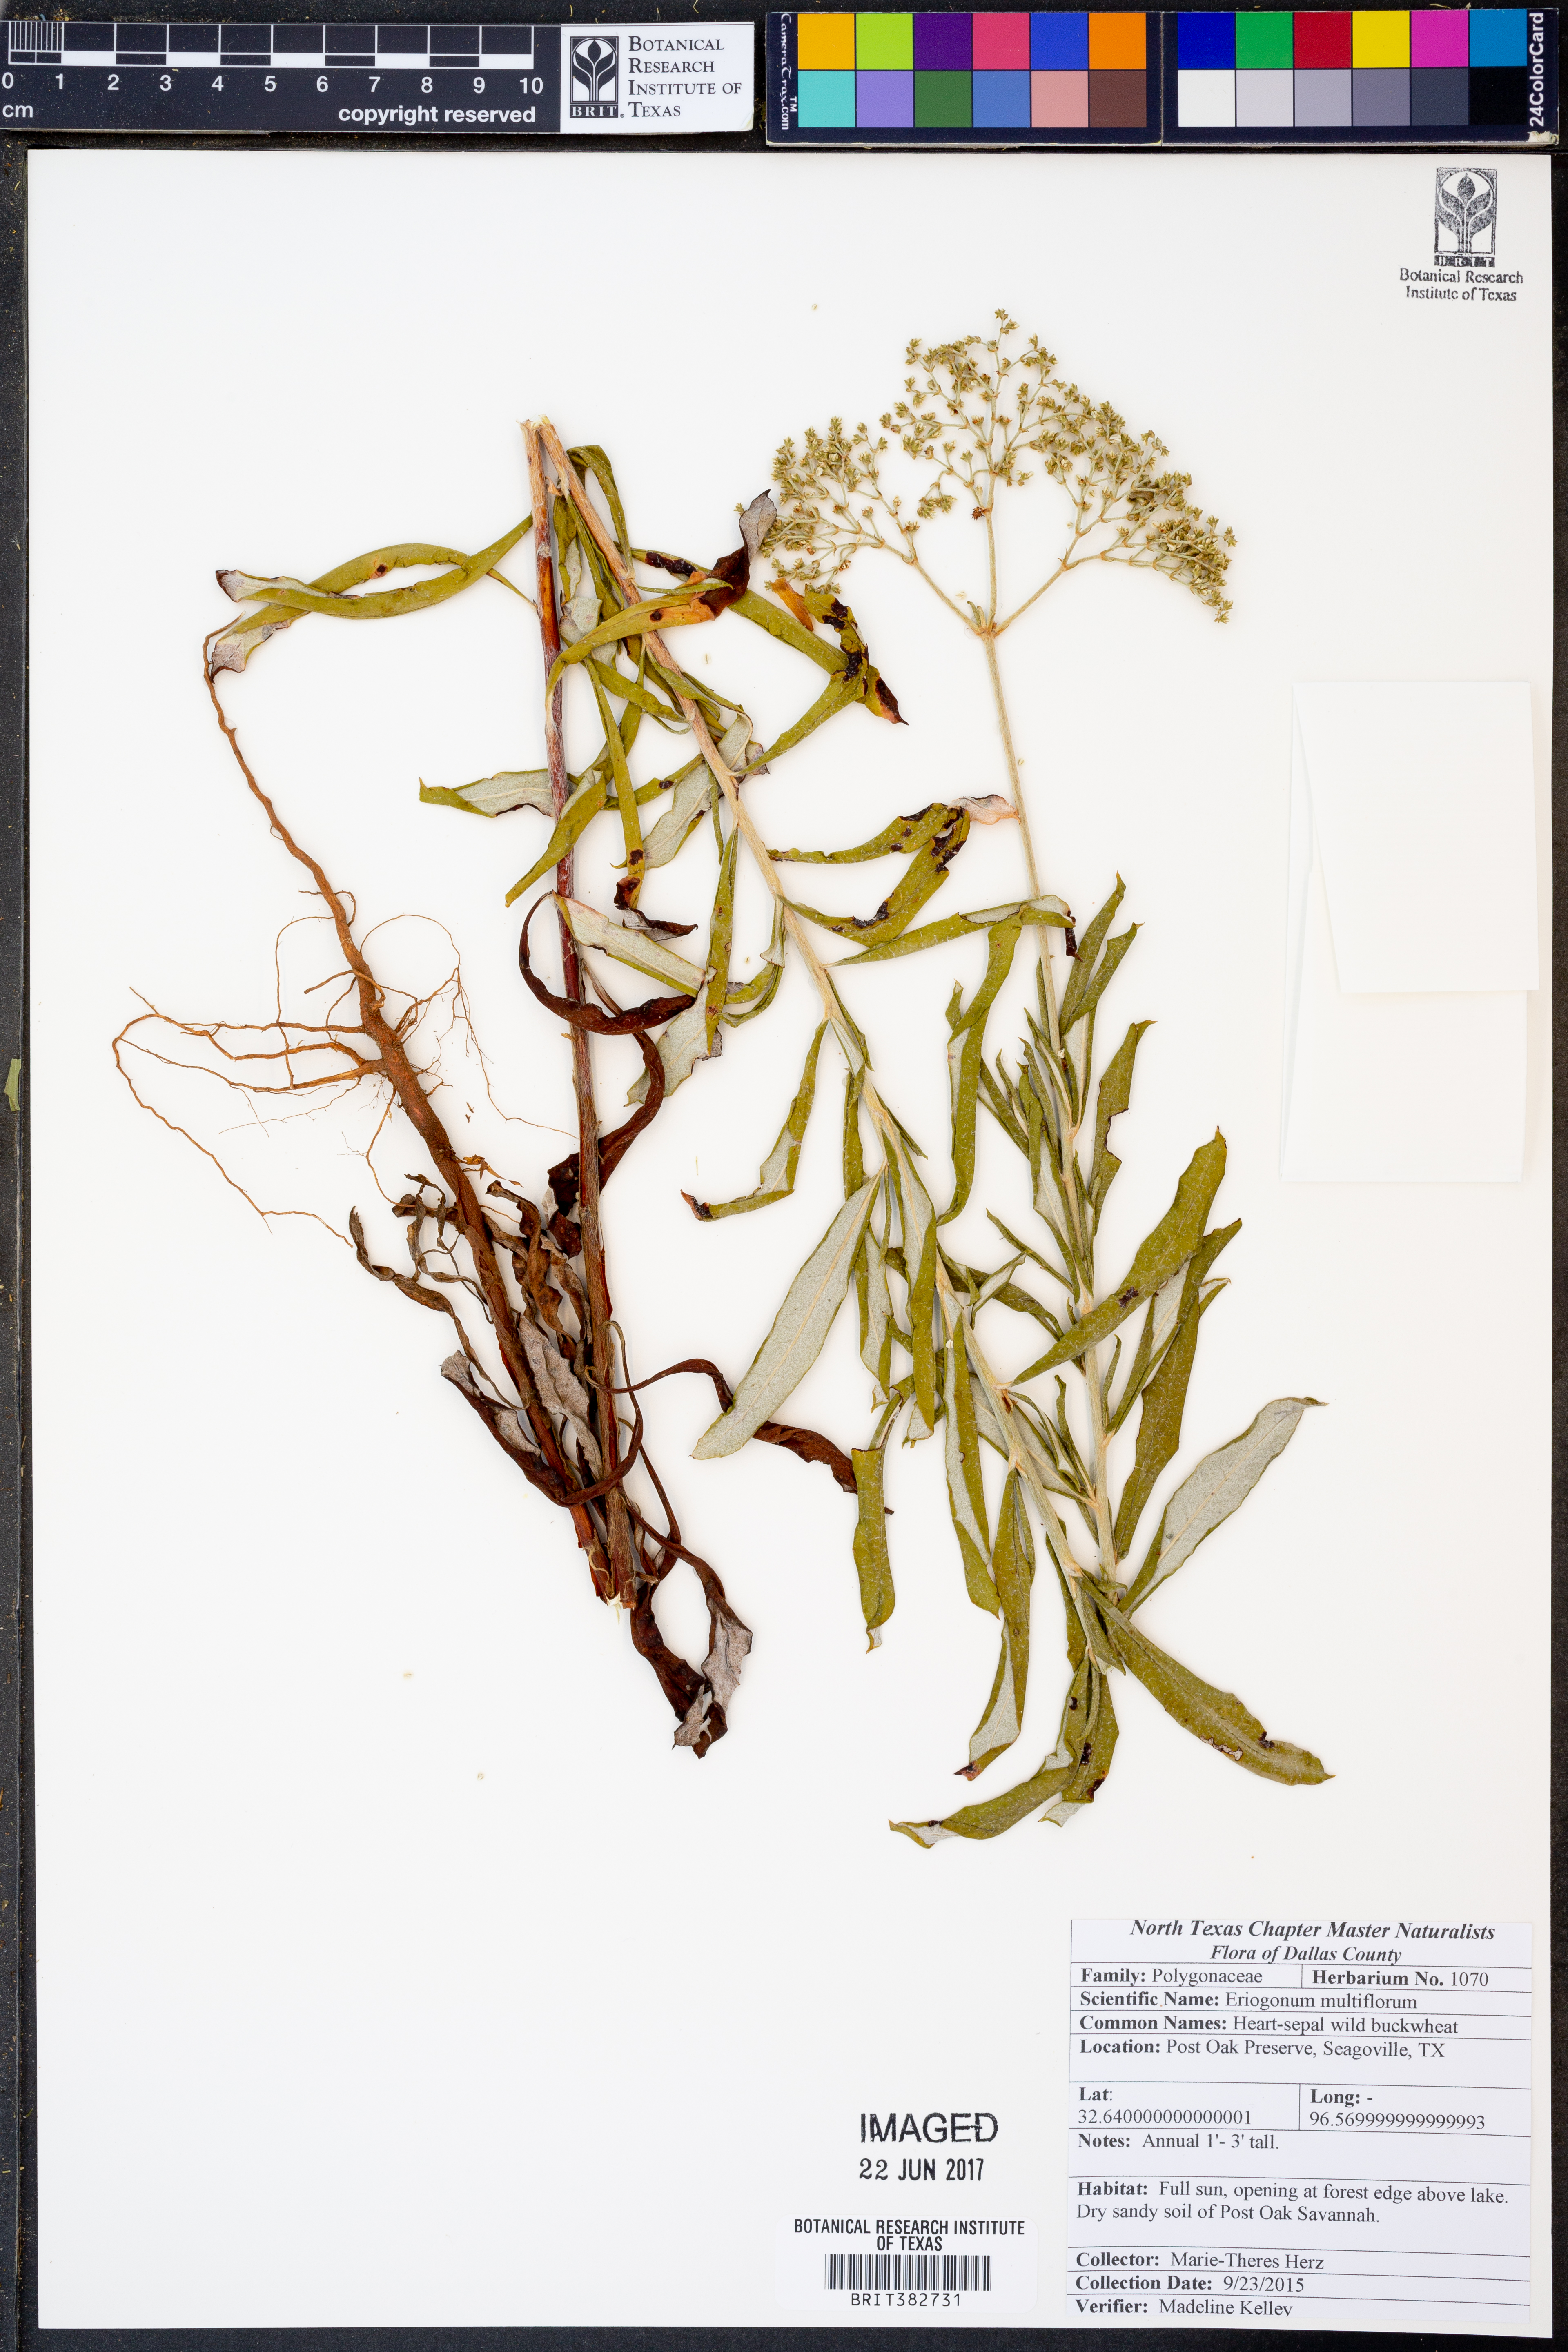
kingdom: Plantae
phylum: Tracheophyta
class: Magnoliopsida
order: Caryophyllales
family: Polygonaceae
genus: Eriogonum
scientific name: Eriogonum multiflorum
